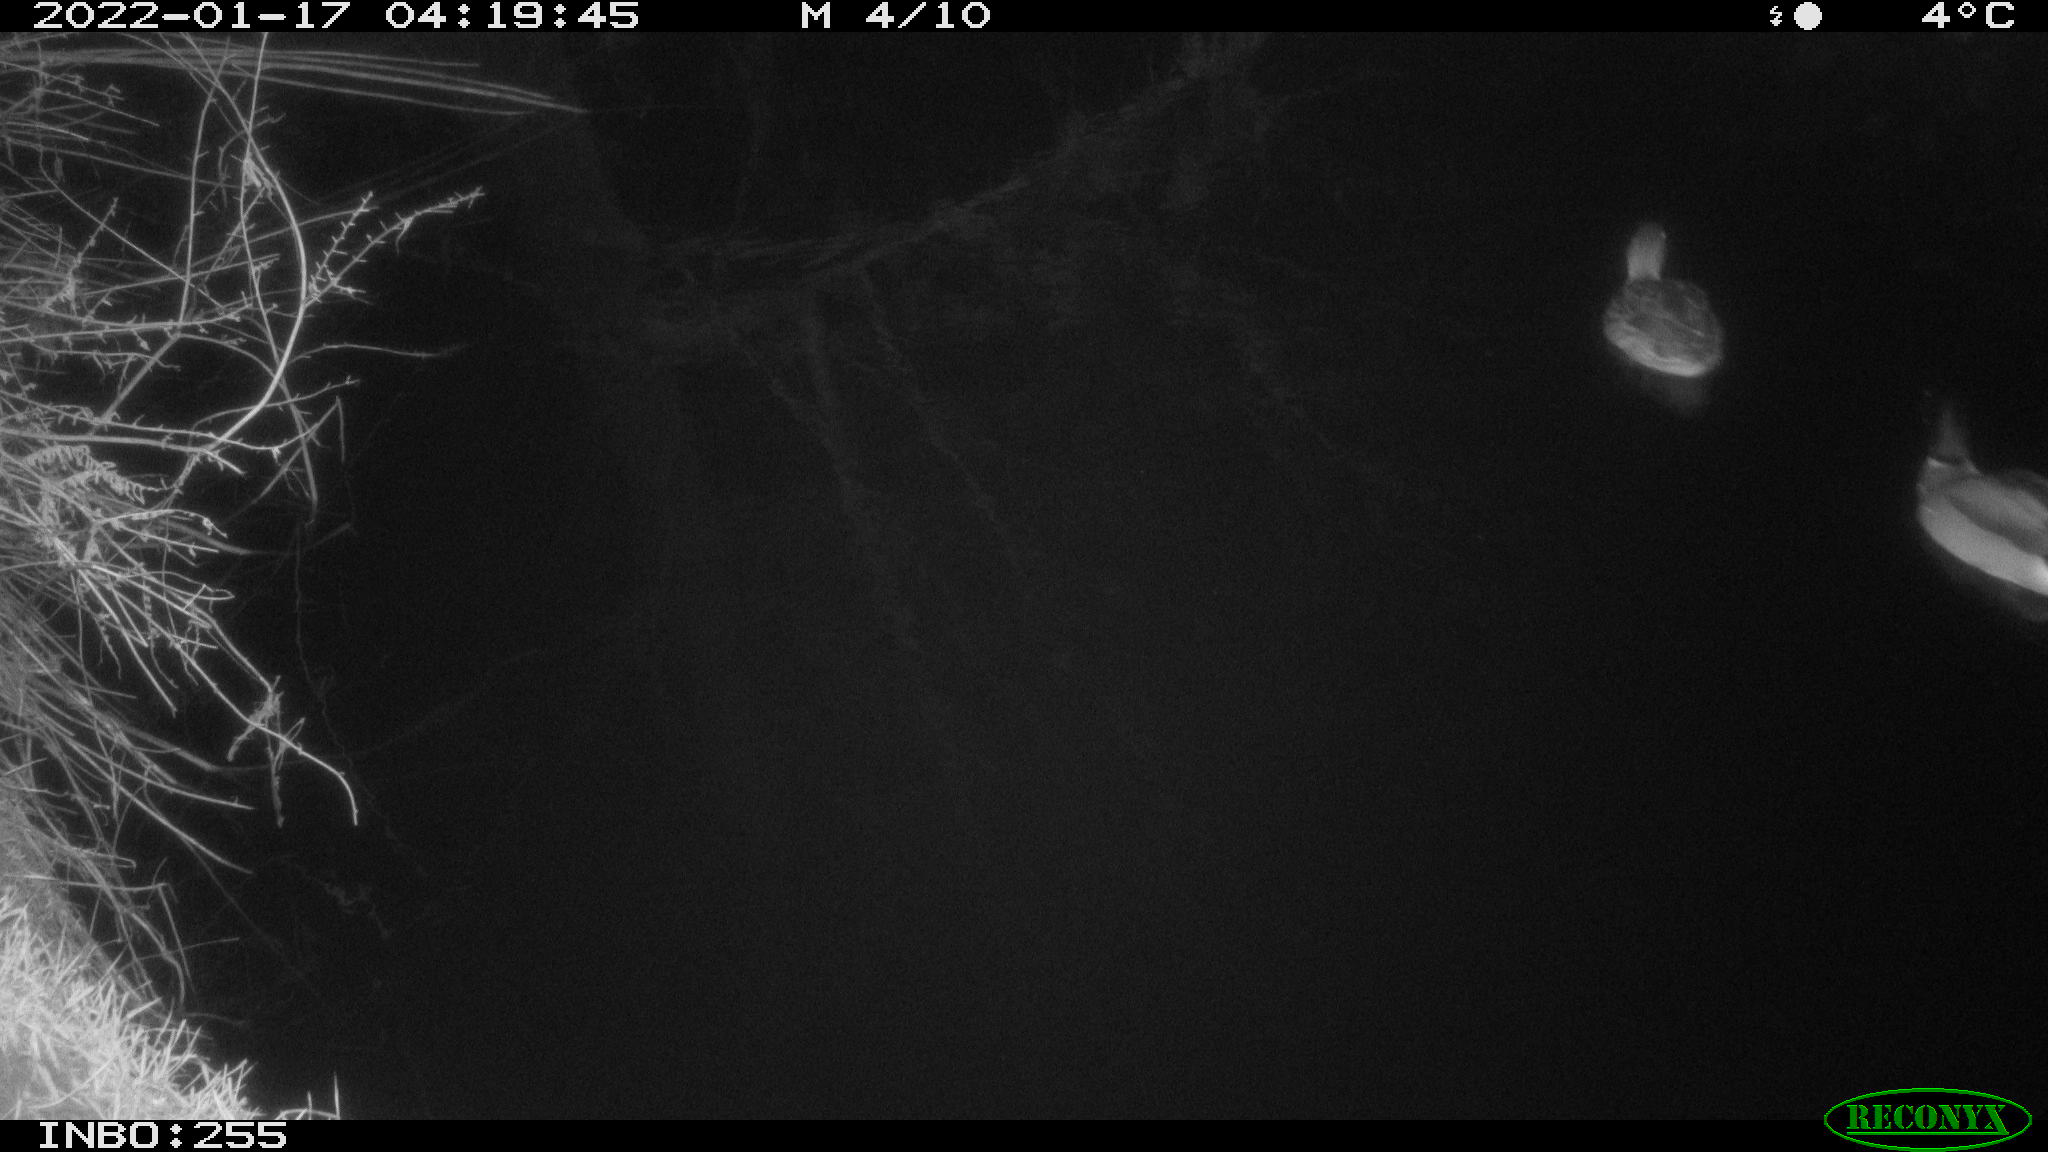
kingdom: Animalia
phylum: Chordata
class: Aves
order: Anseriformes
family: Anatidae
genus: Anas
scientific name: Anas
